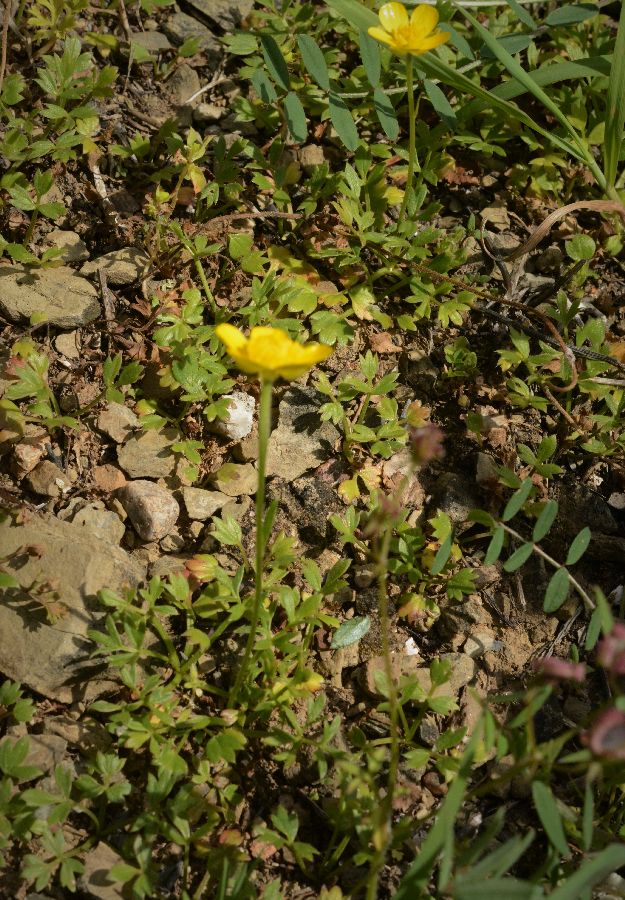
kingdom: Plantae
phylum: Tracheophyta
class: Magnoliopsida
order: Ranunculales
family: Ranunculaceae
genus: Ranunculus
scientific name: Ranunculus paludosus
